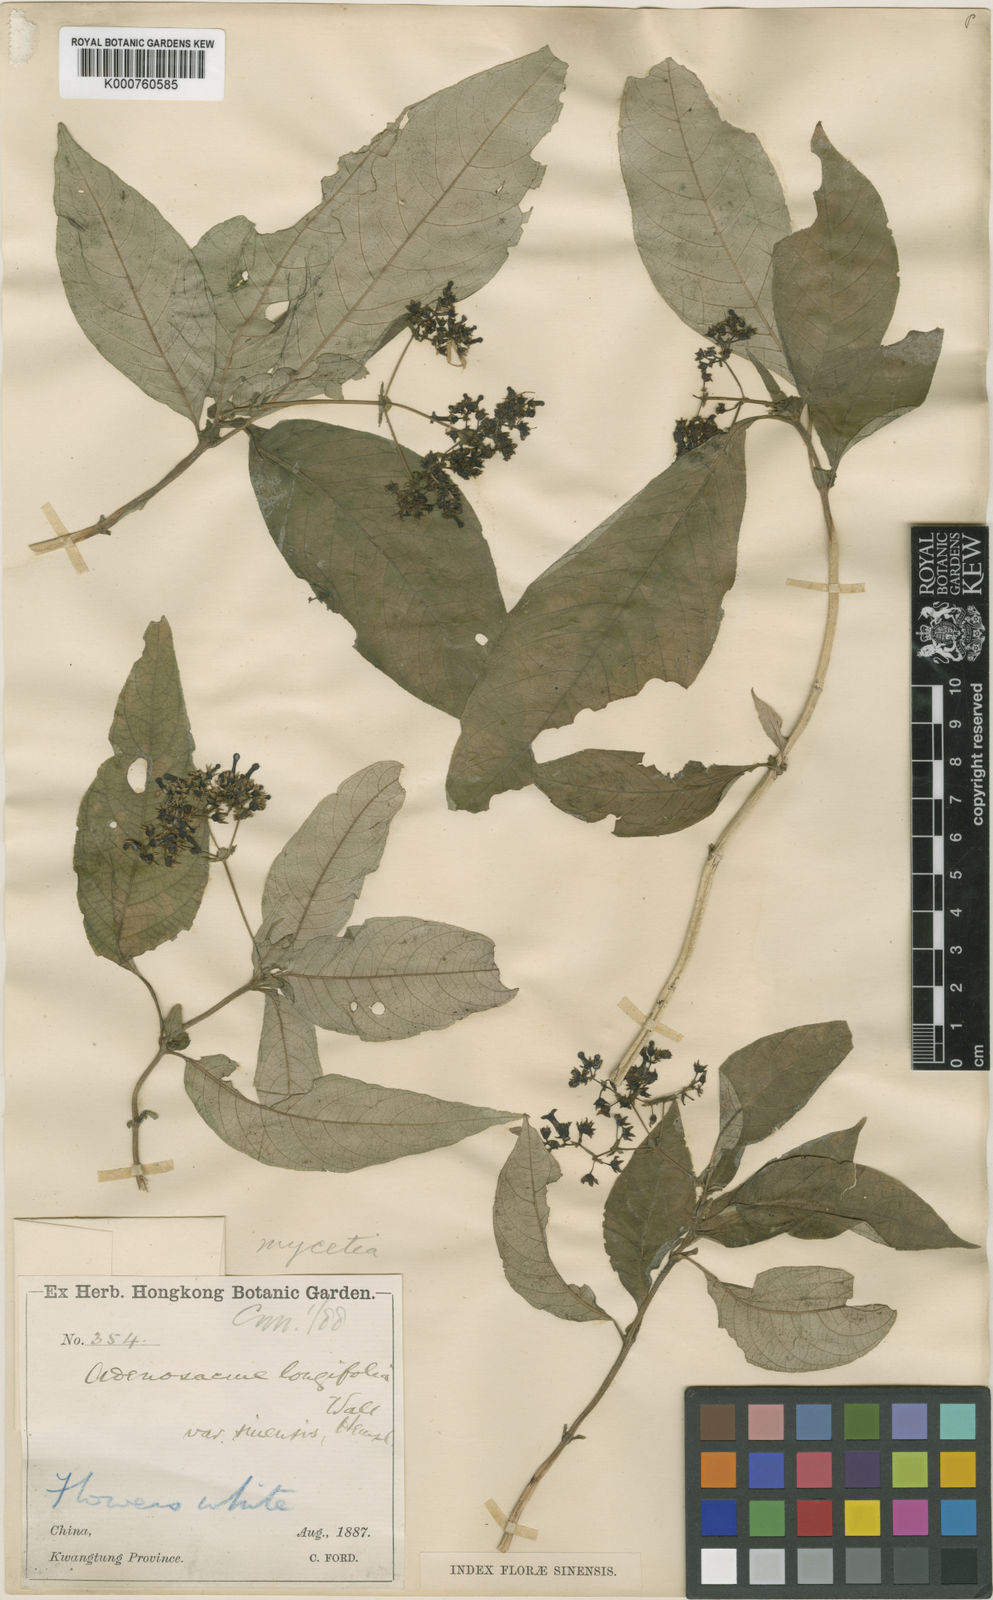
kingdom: Plantae
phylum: Tracheophyta
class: Magnoliopsida
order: Gentianales
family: Rubiaceae
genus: Mycetia
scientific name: Mycetia sinensis
